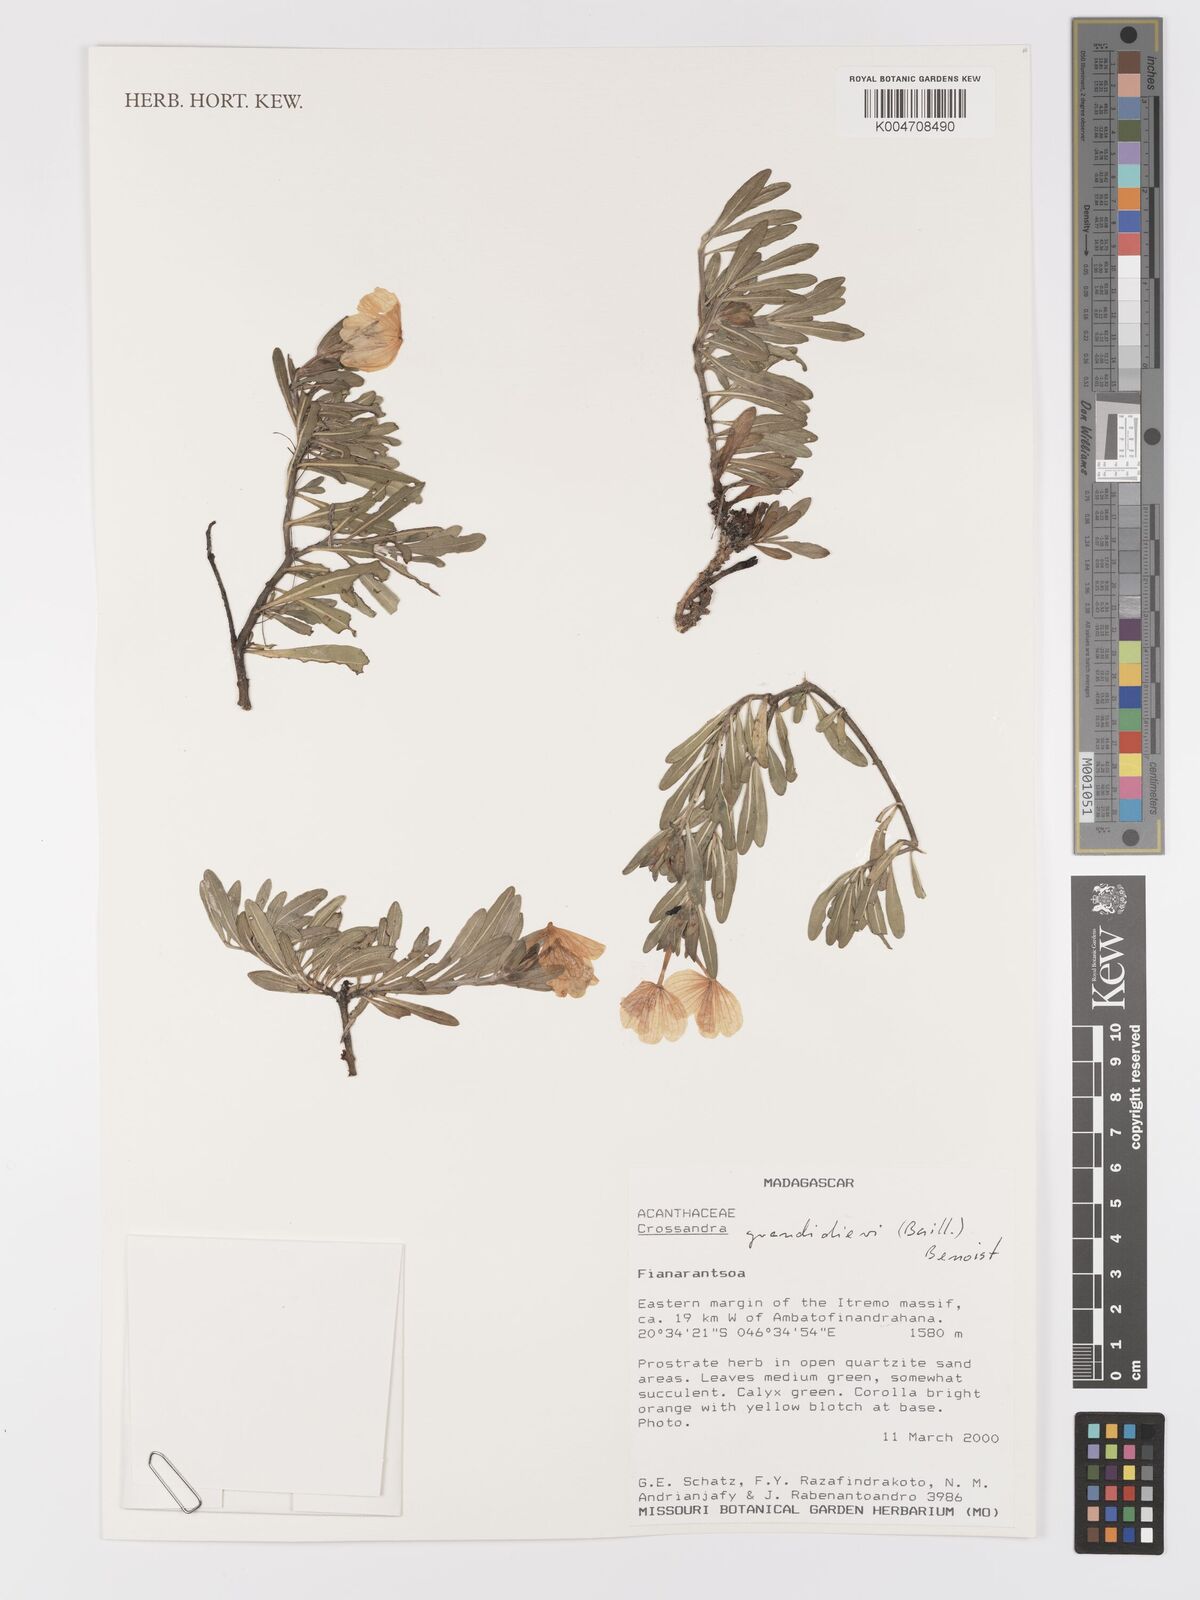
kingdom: Plantae
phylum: Tracheophyta
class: Magnoliopsida
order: Lamiales
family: Acanthaceae
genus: Crossandra
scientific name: Crossandra grandidieri
